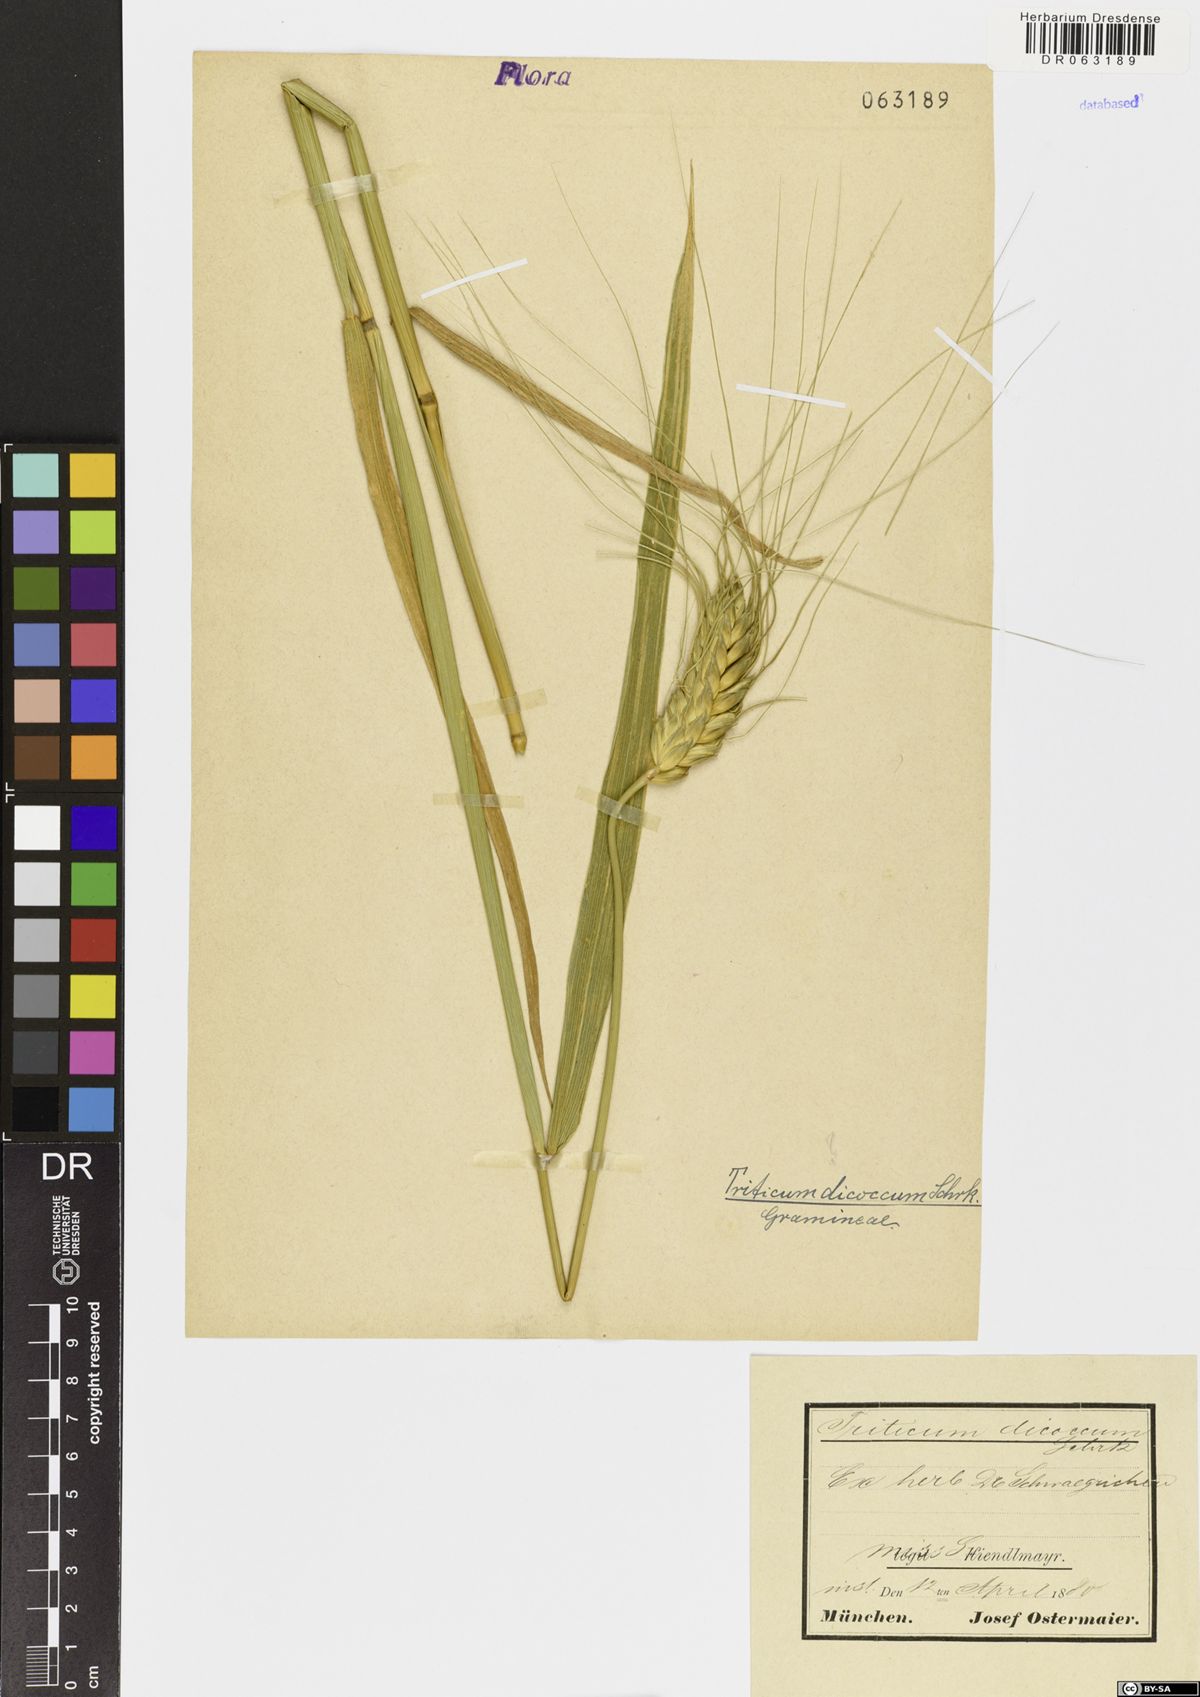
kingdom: Plantae
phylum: Tracheophyta
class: Liliopsida
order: Poales
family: Poaceae
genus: Triticum
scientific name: Triticum turgidum
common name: Rivet wheat
